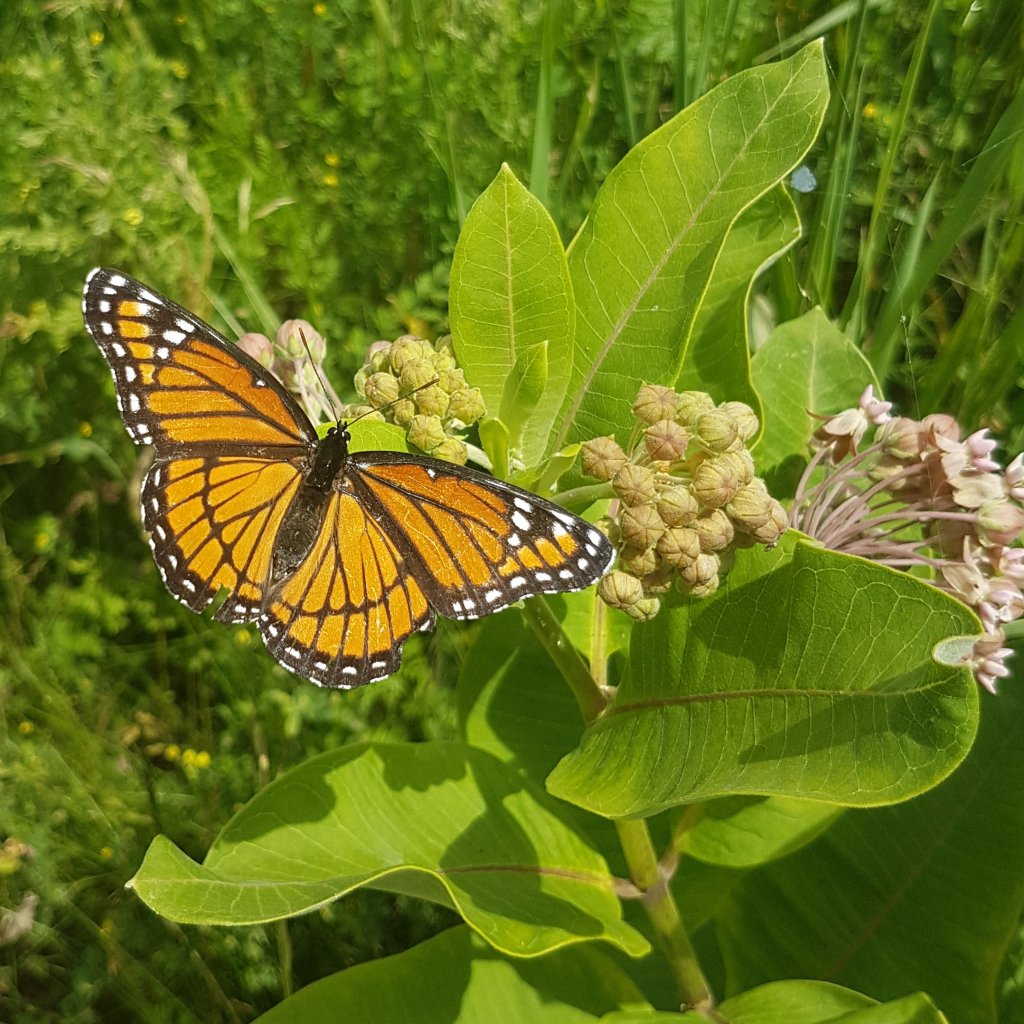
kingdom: Animalia
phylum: Arthropoda
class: Insecta
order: Lepidoptera
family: Nymphalidae
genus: Limenitis
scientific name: Limenitis archippus
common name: Viceroy
